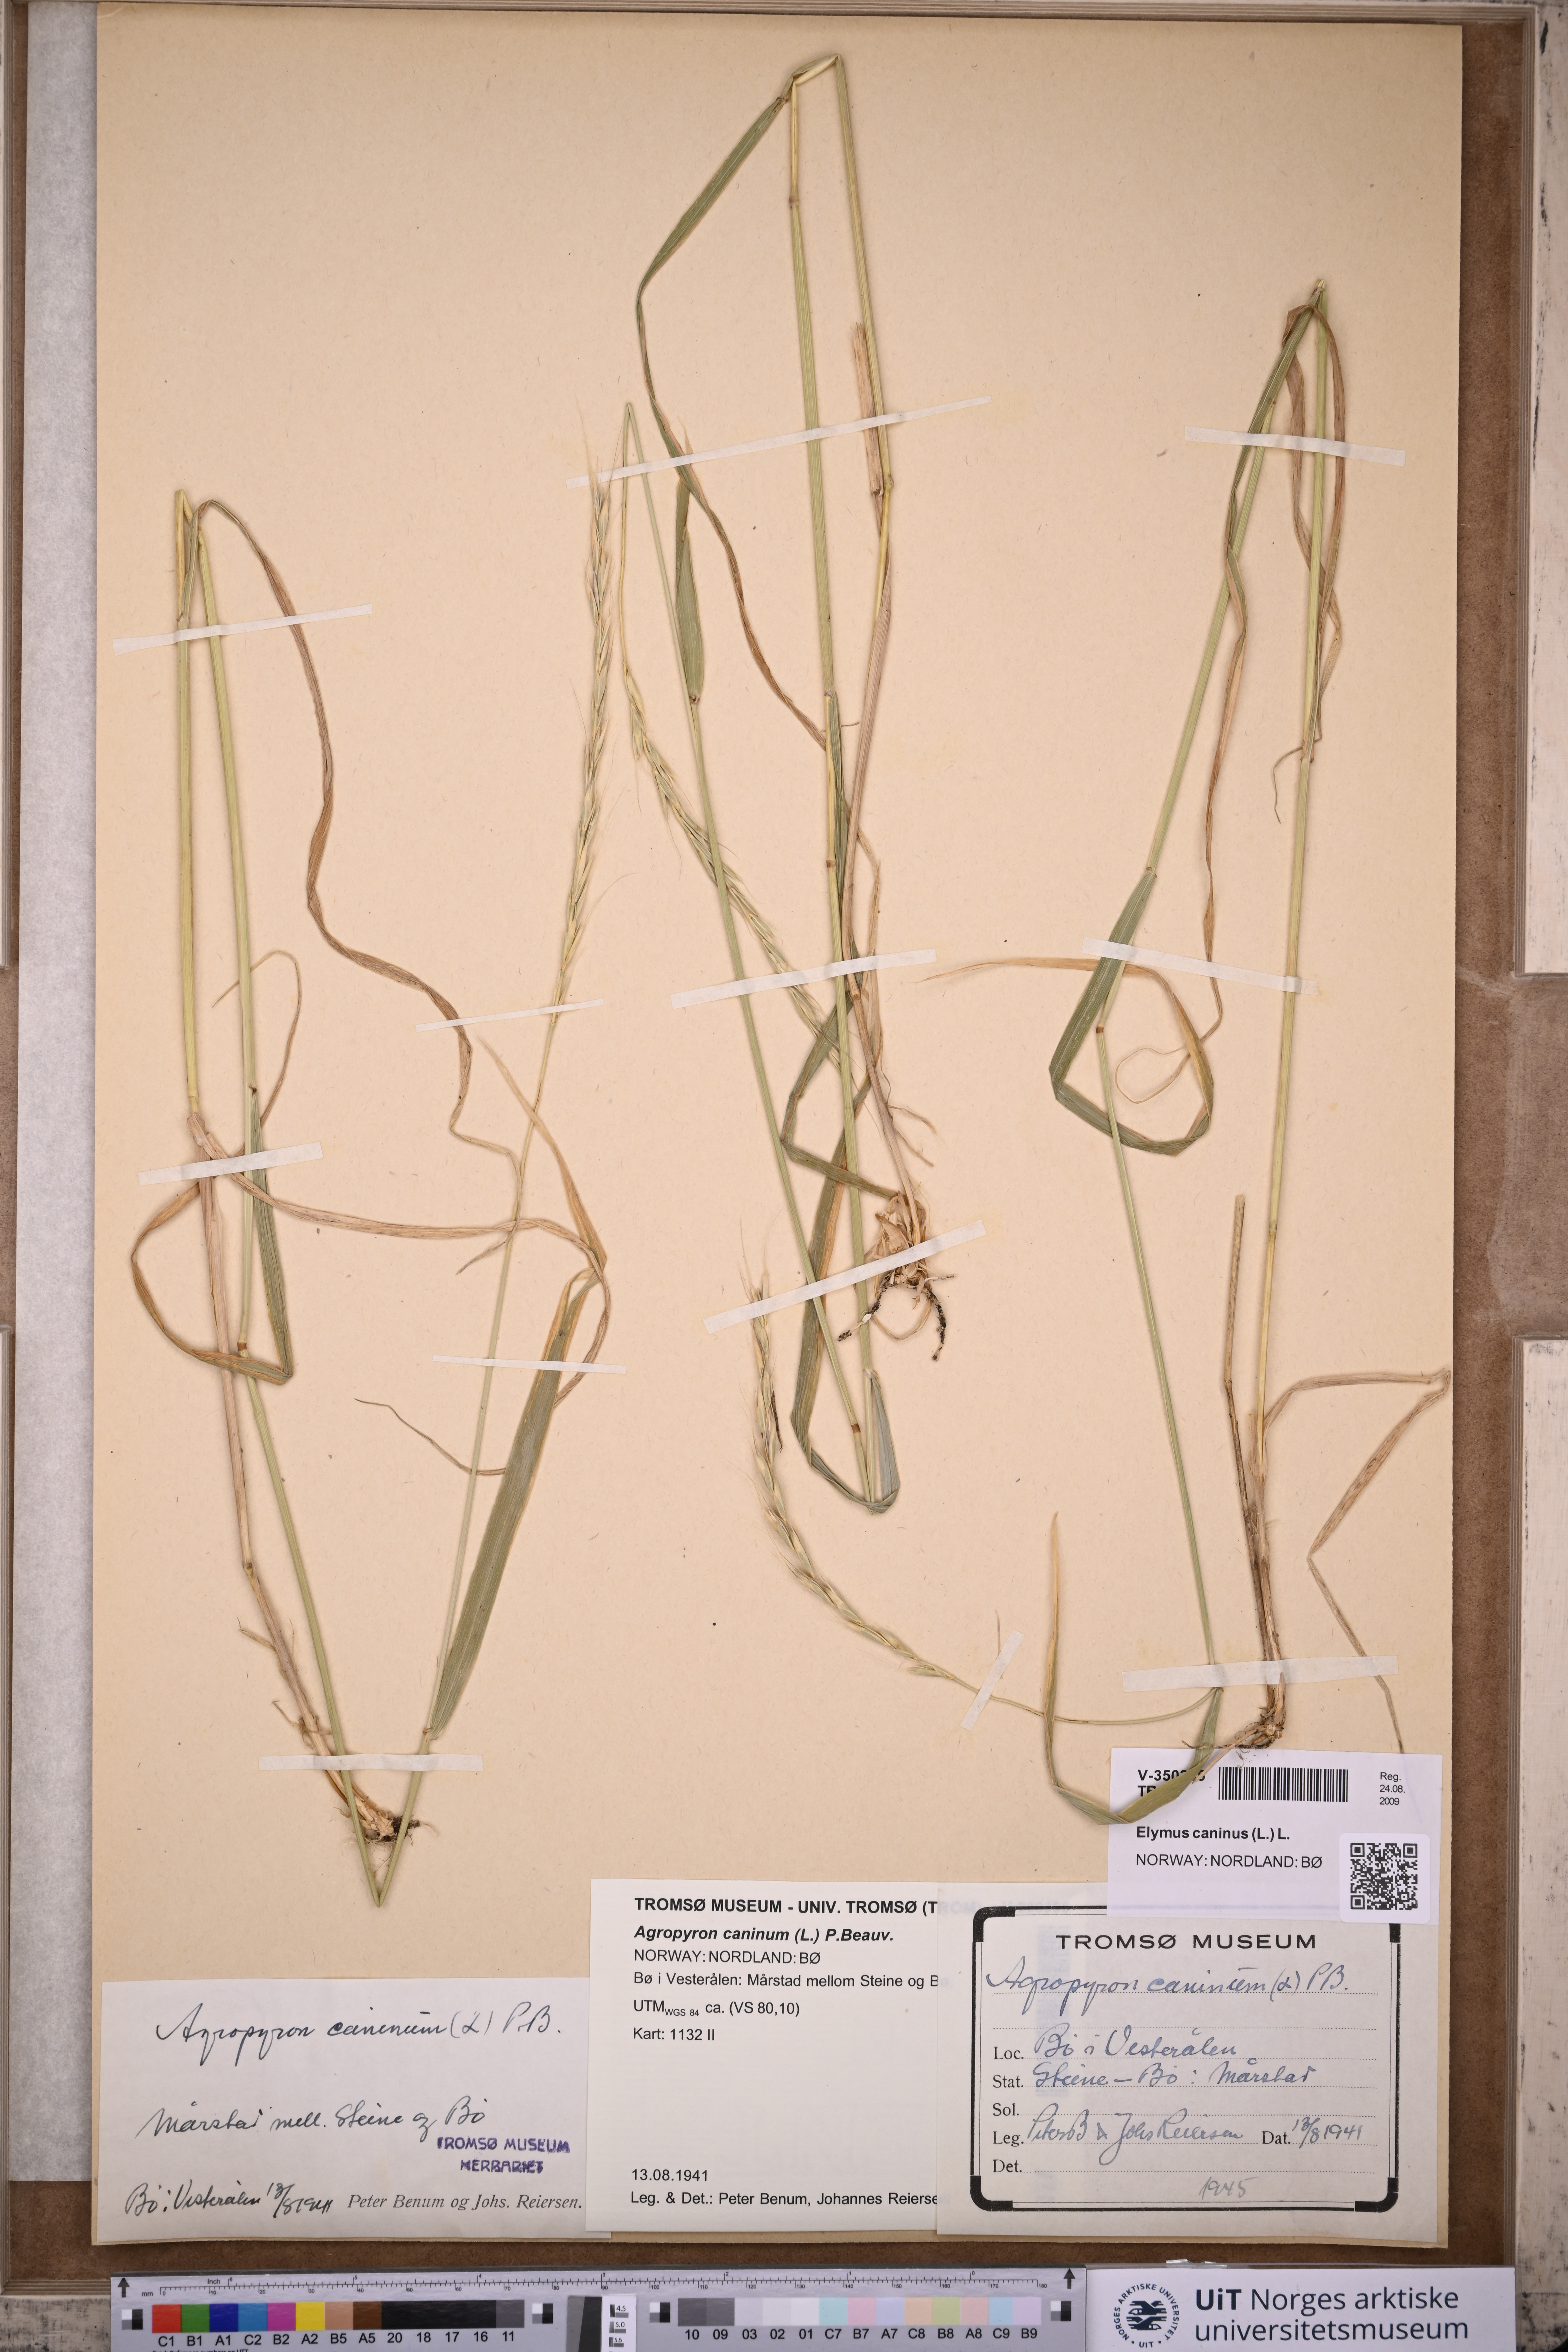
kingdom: Plantae
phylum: Tracheophyta
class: Liliopsida
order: Poales
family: Poaceae
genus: Elymus
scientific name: Elymus caninus
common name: Bearded couch
